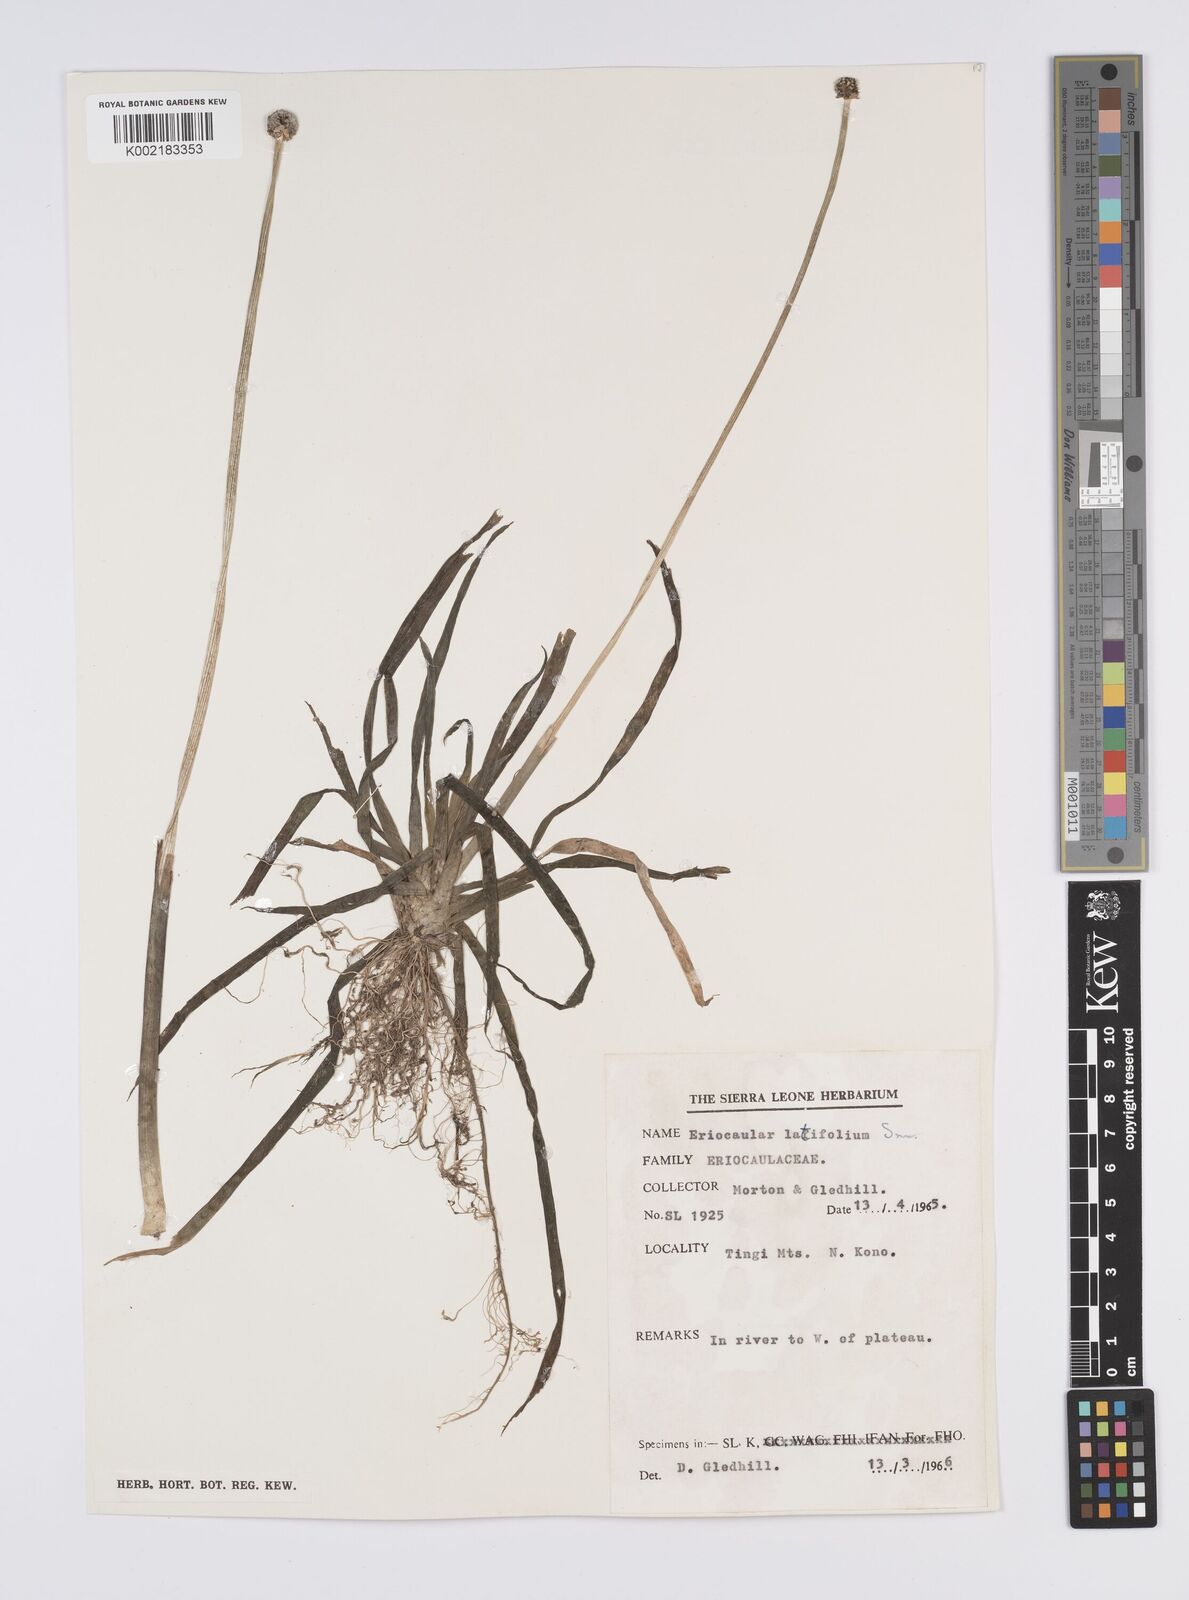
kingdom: Plantae
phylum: Tracheophyta
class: Liliopsida
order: Poales
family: Eriocaulaceae
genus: Eriocaulon
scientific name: Eriocaulon latifolium
